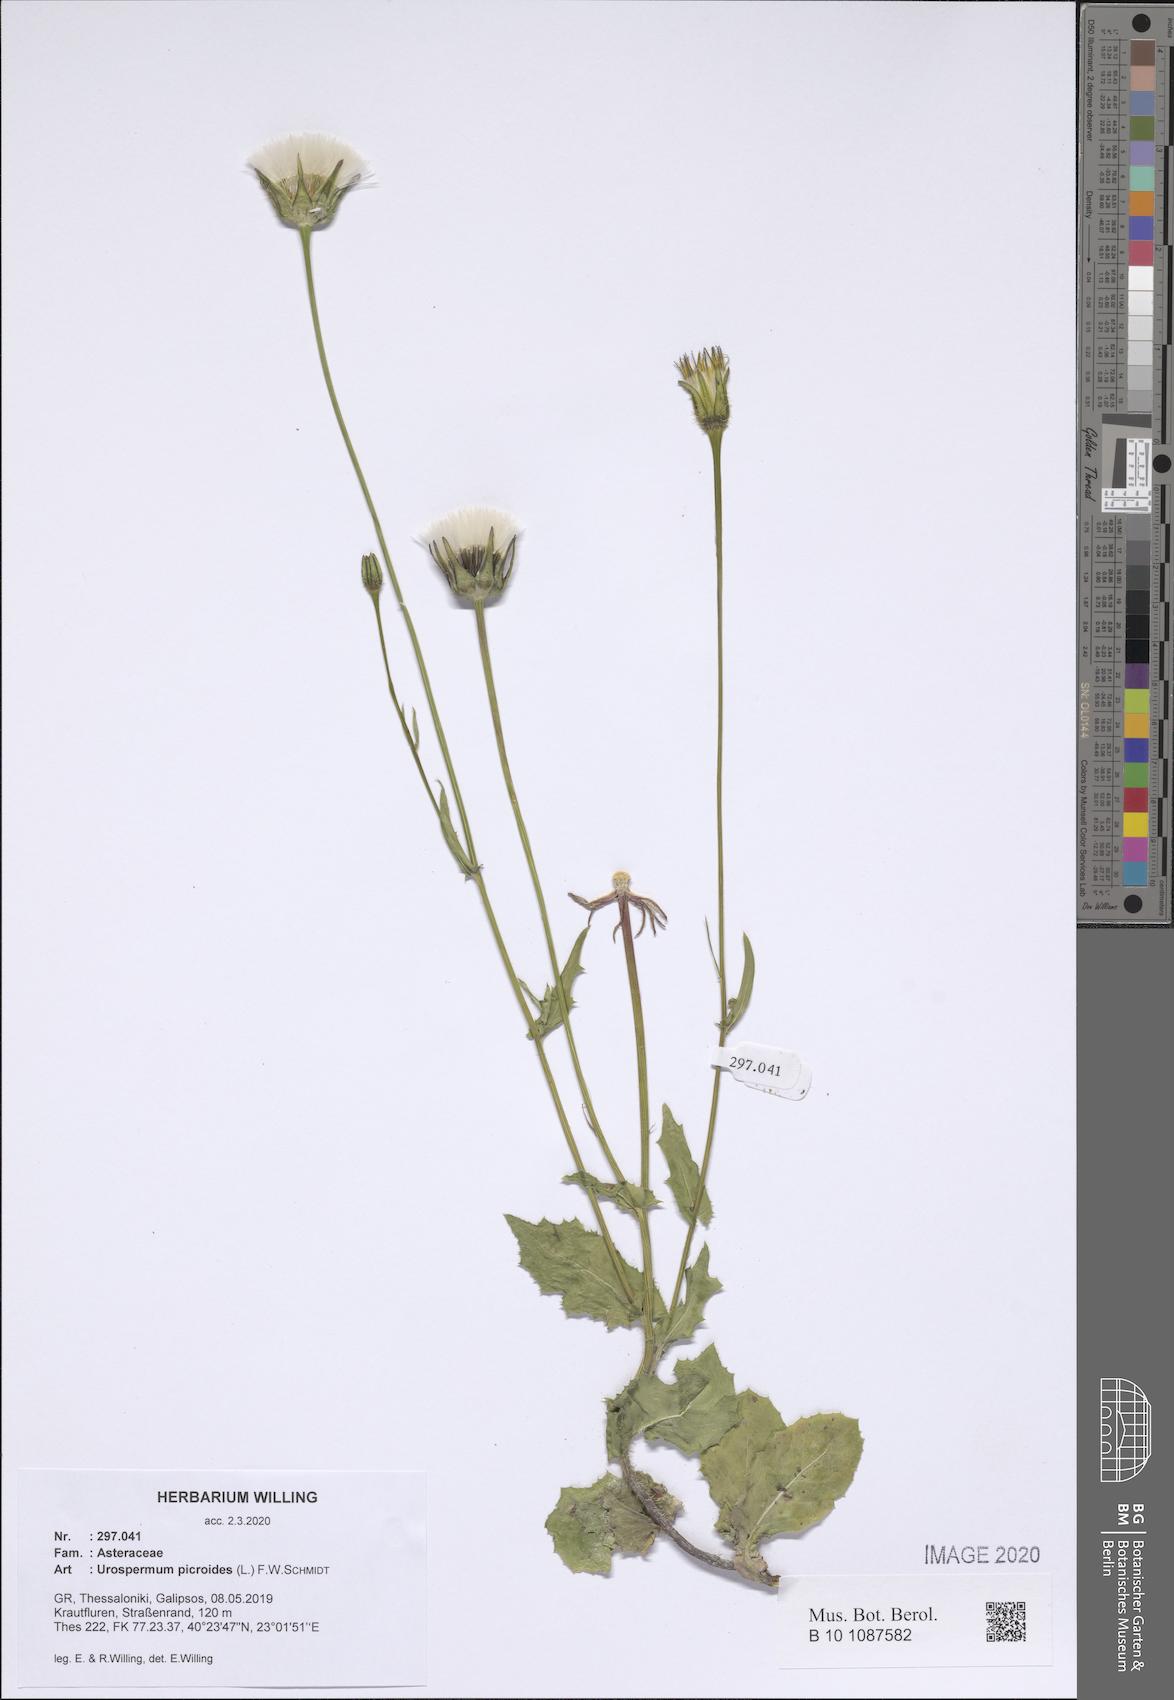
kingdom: Plantae
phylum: Tracheophyta
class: Magnoliopsida
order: Asterales
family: Asteraceae
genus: Urospermum
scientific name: Urospermum picroides
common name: False hawkbit
